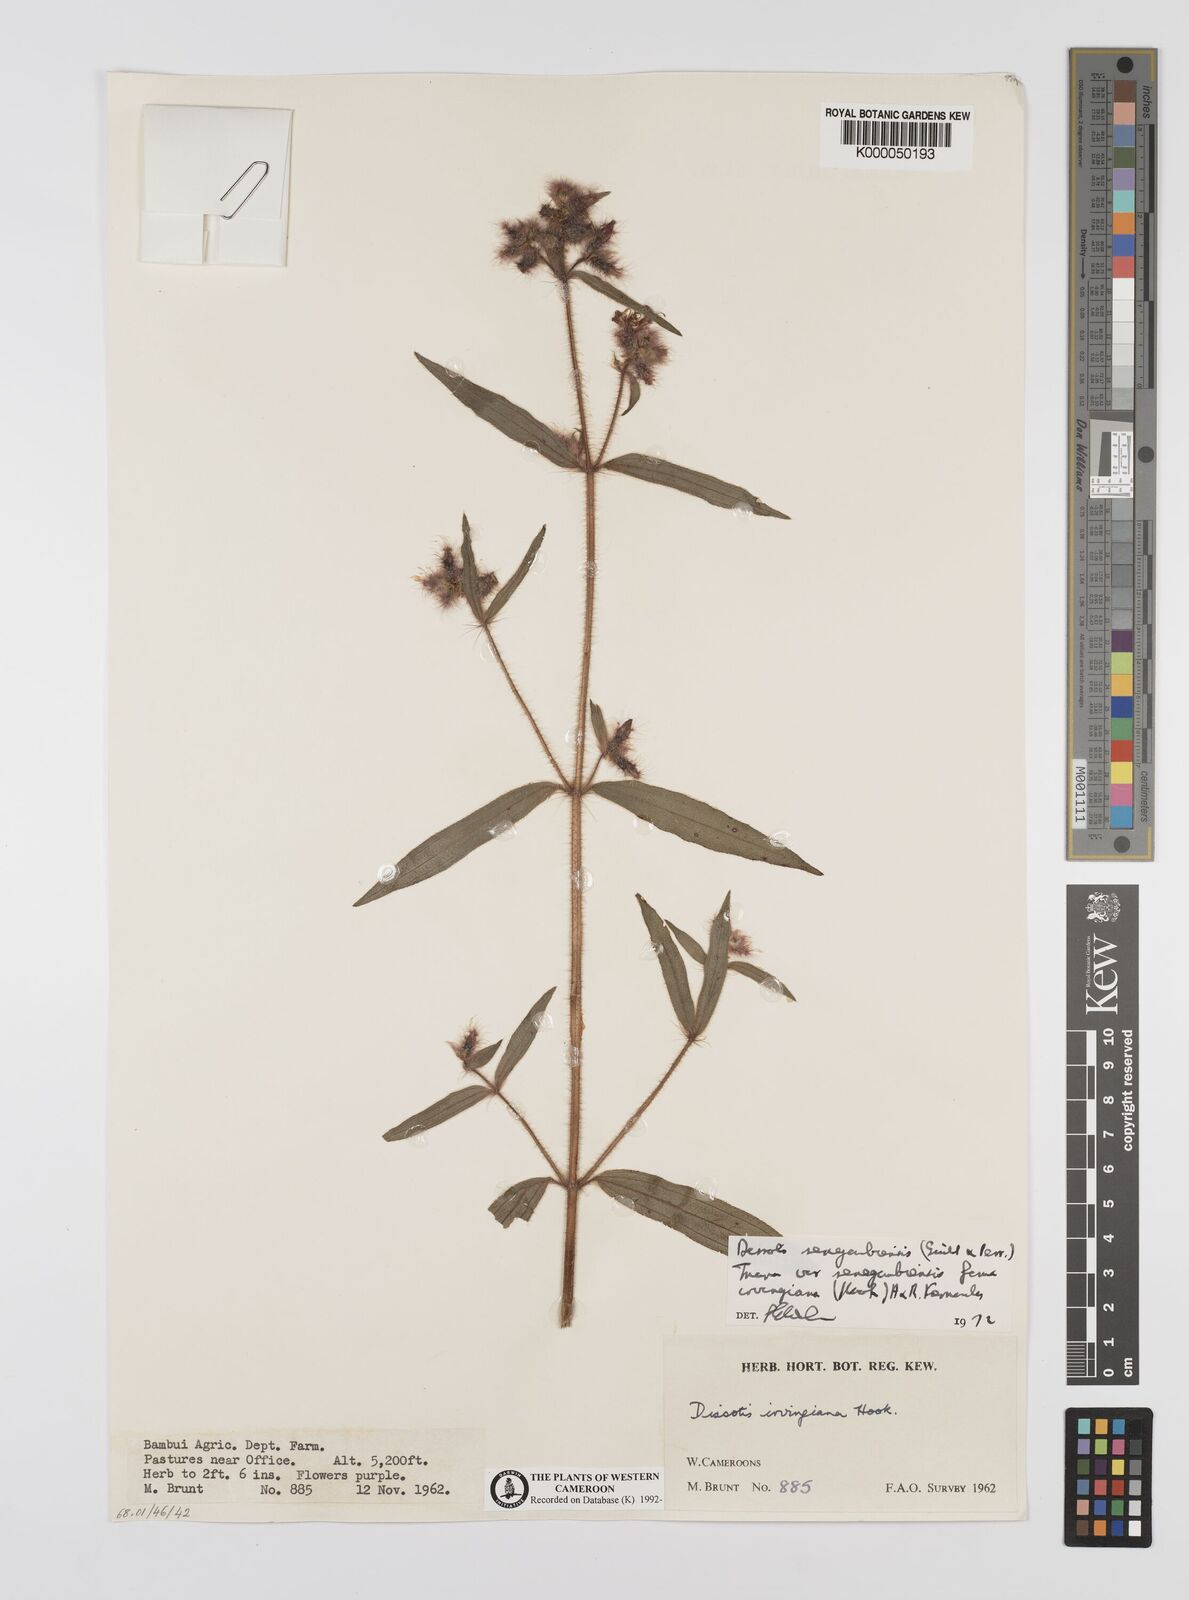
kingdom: Plantae
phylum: Tracheophyta
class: Magnoliopsida
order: Myrtales
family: Melastomataceae
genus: Nerophila
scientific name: Nerophila senegambiensis
